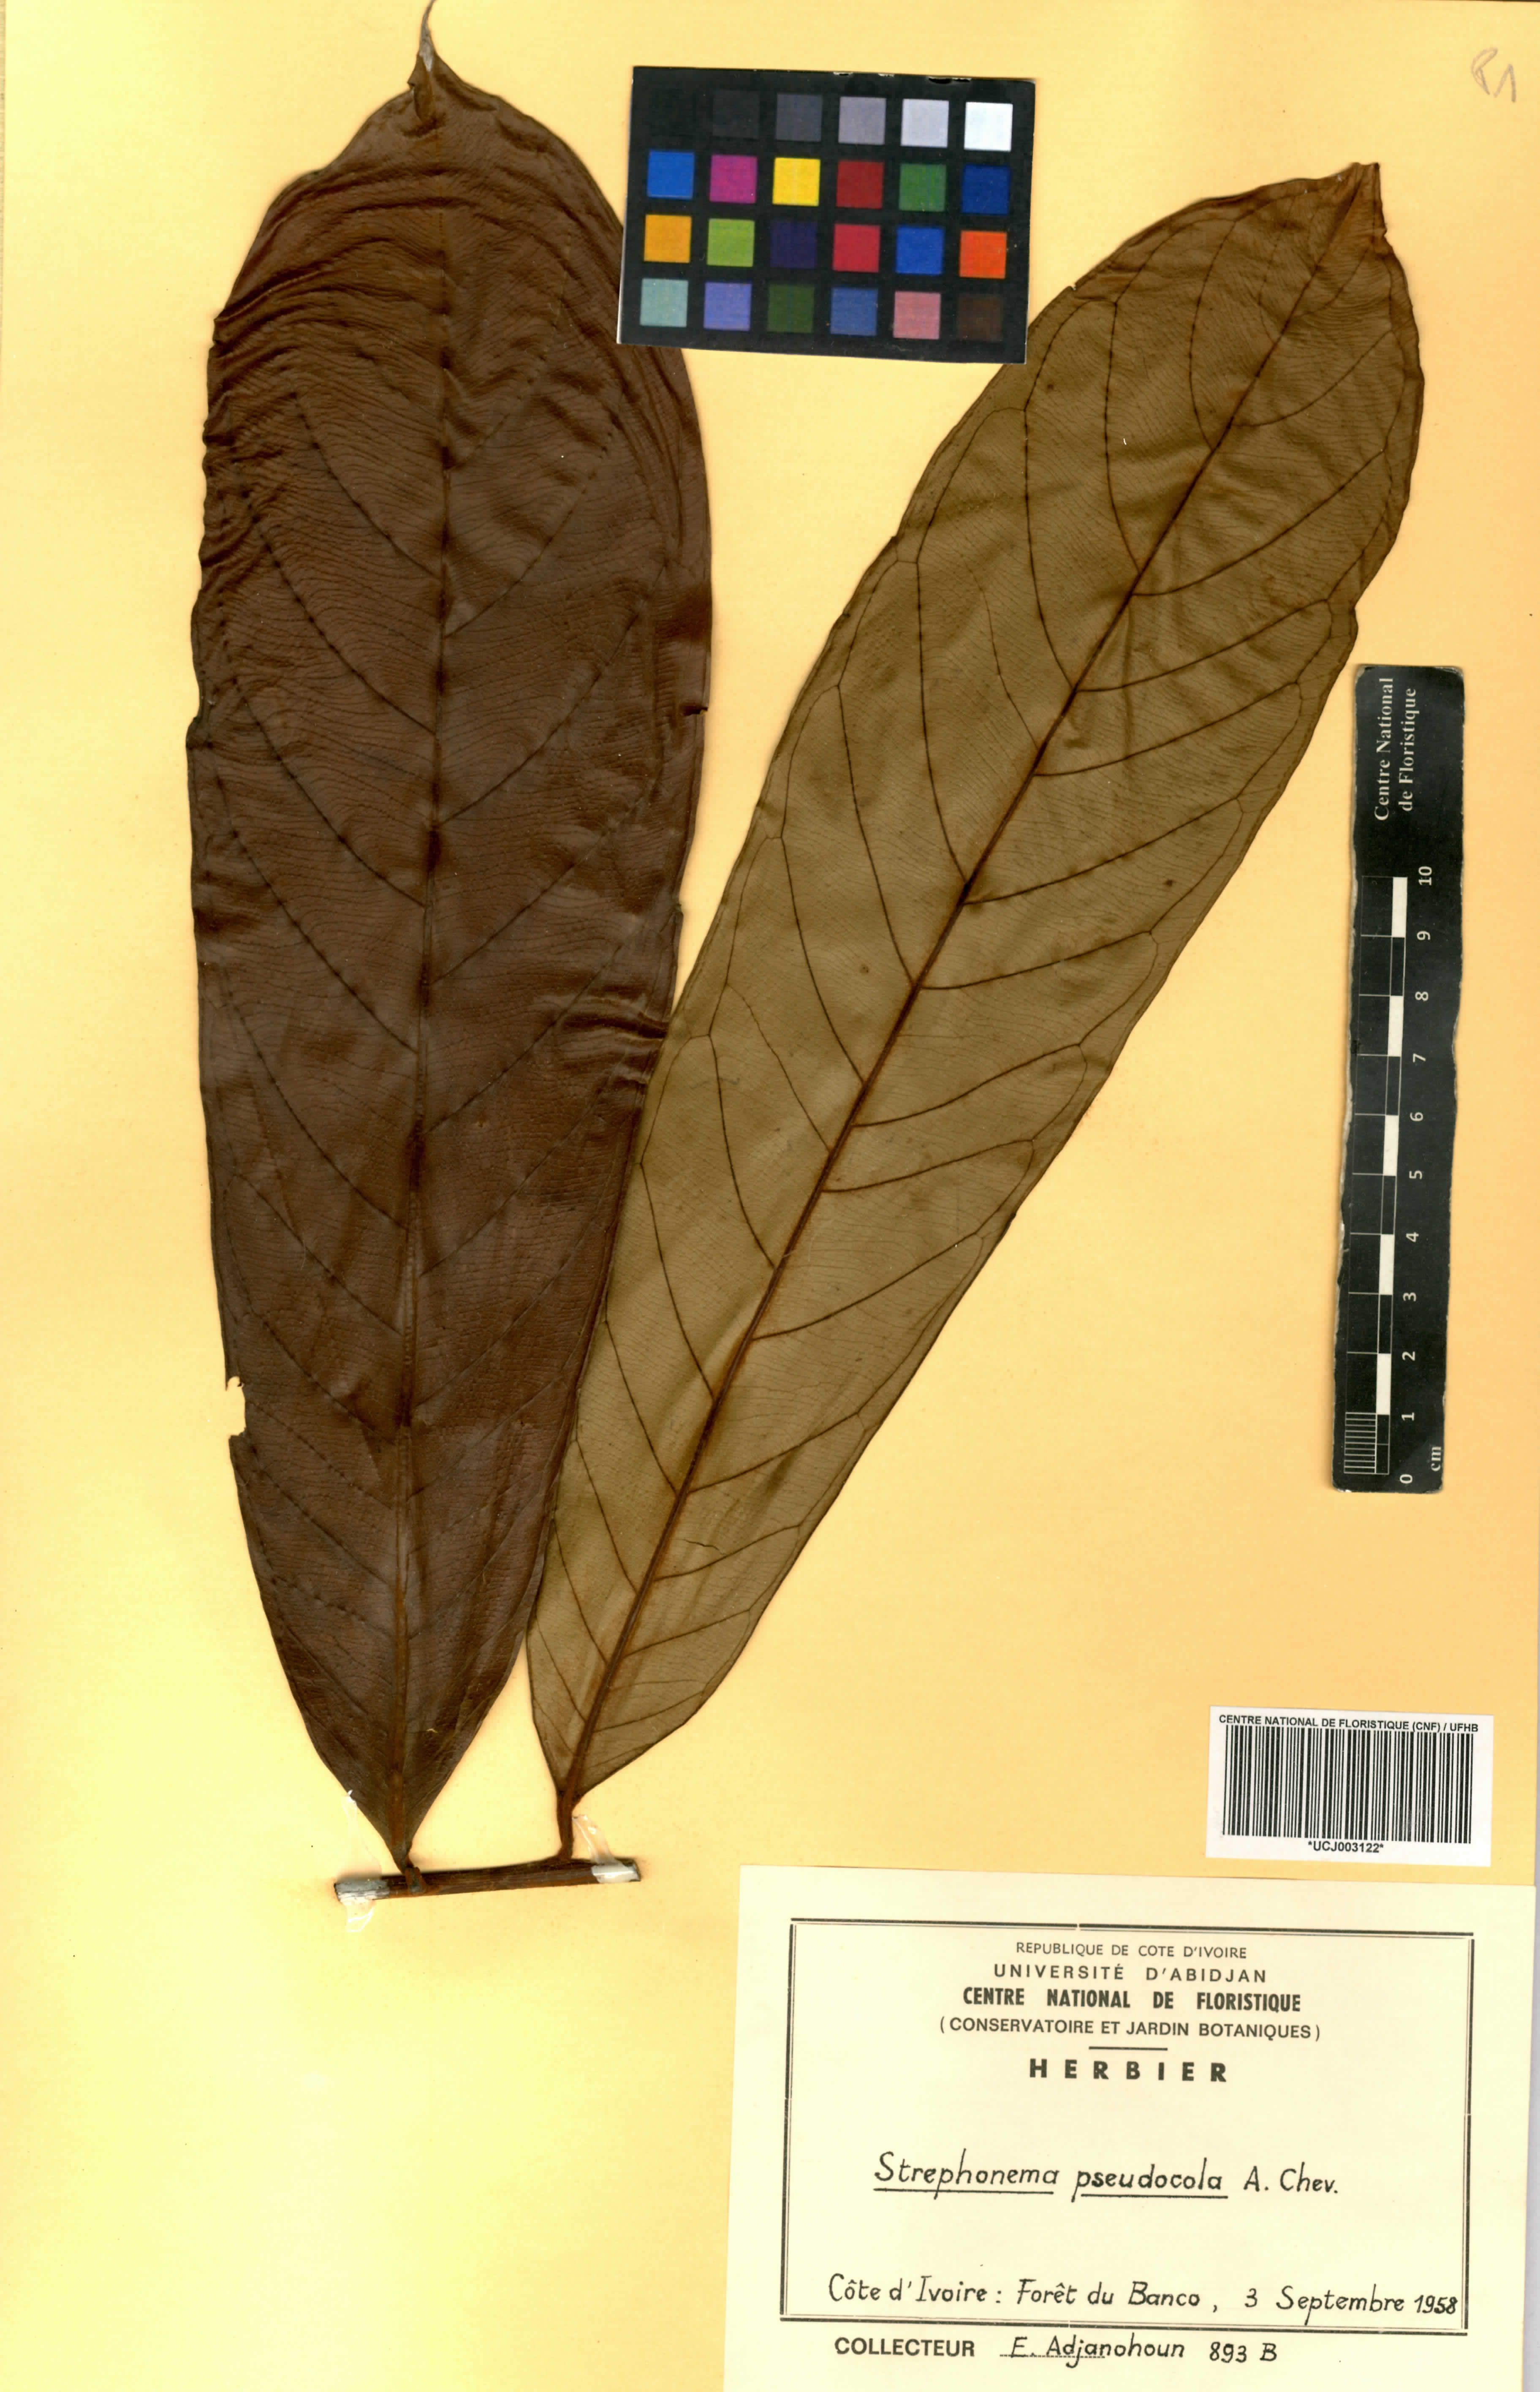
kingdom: Plantae
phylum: Tracheophyta
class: Magnoliopsida
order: Myrtales
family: Combretaceae
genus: Strephonema
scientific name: Strephonema pseudocola
